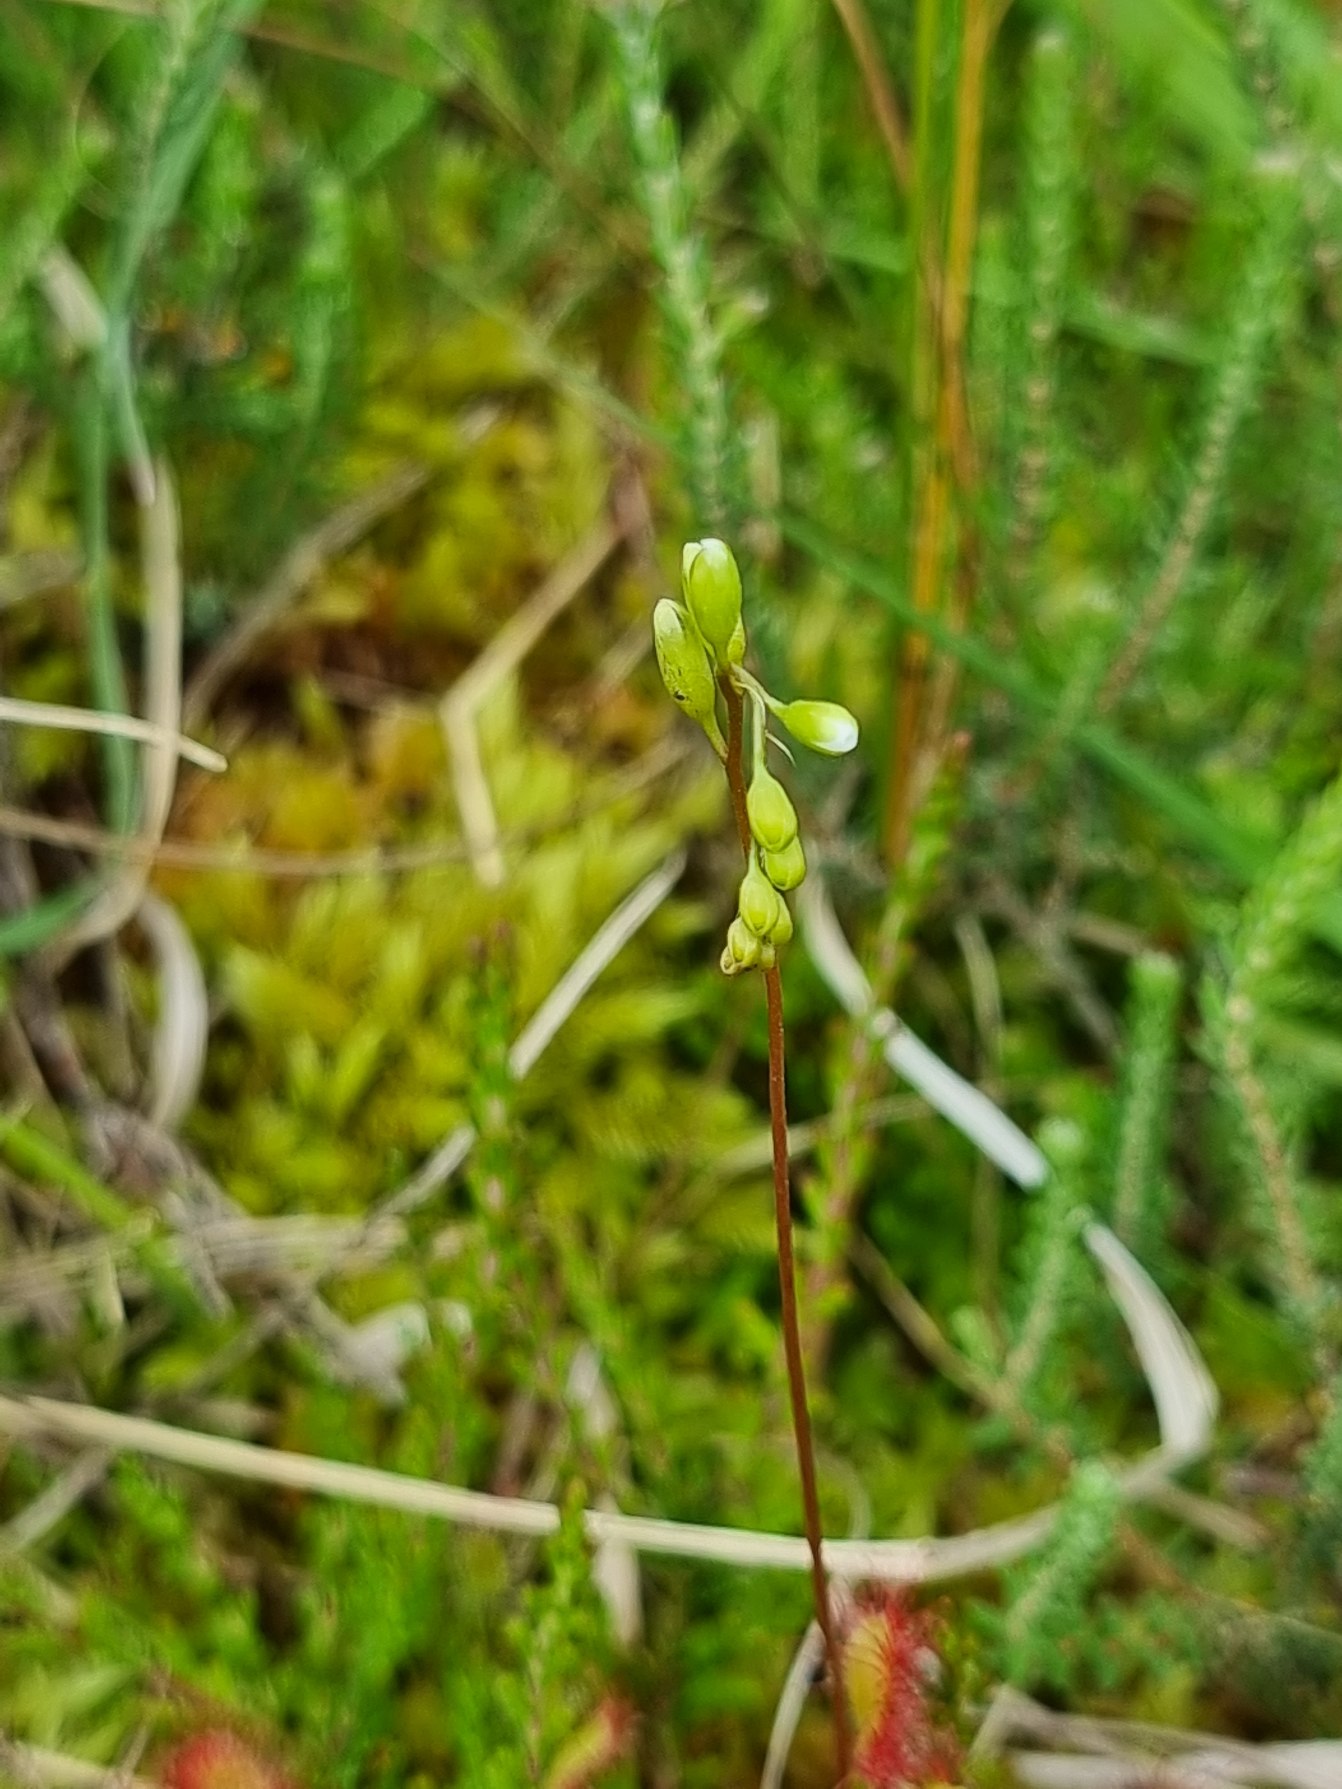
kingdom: Plantae
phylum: Tracheophyta
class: Magnoliopsida
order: Caryophyllales
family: Droseraceae
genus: Drosera
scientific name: Drosera rotundifolia
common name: Rundbladet soldug
